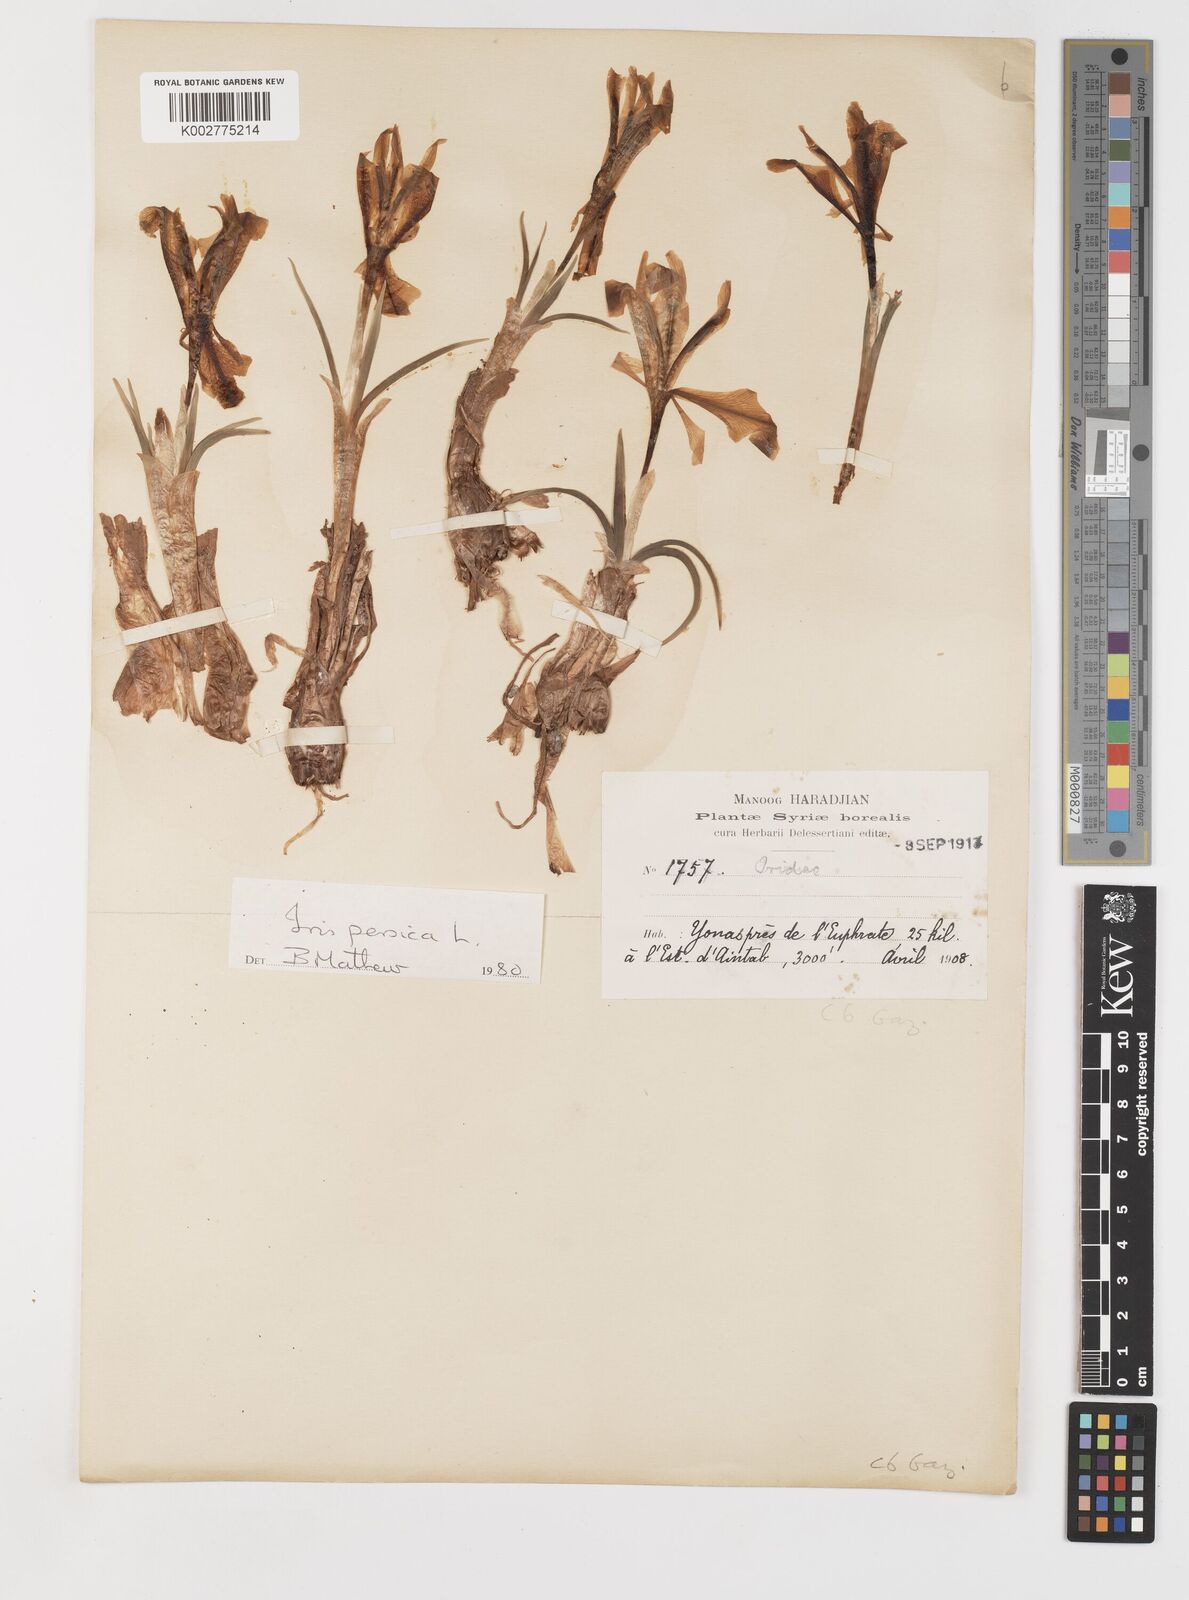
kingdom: Plantae
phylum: Tracheophyta
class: Liliopsida
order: Asparagales
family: Iridaceae
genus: Iris
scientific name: Iris persica
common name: Persian iris
